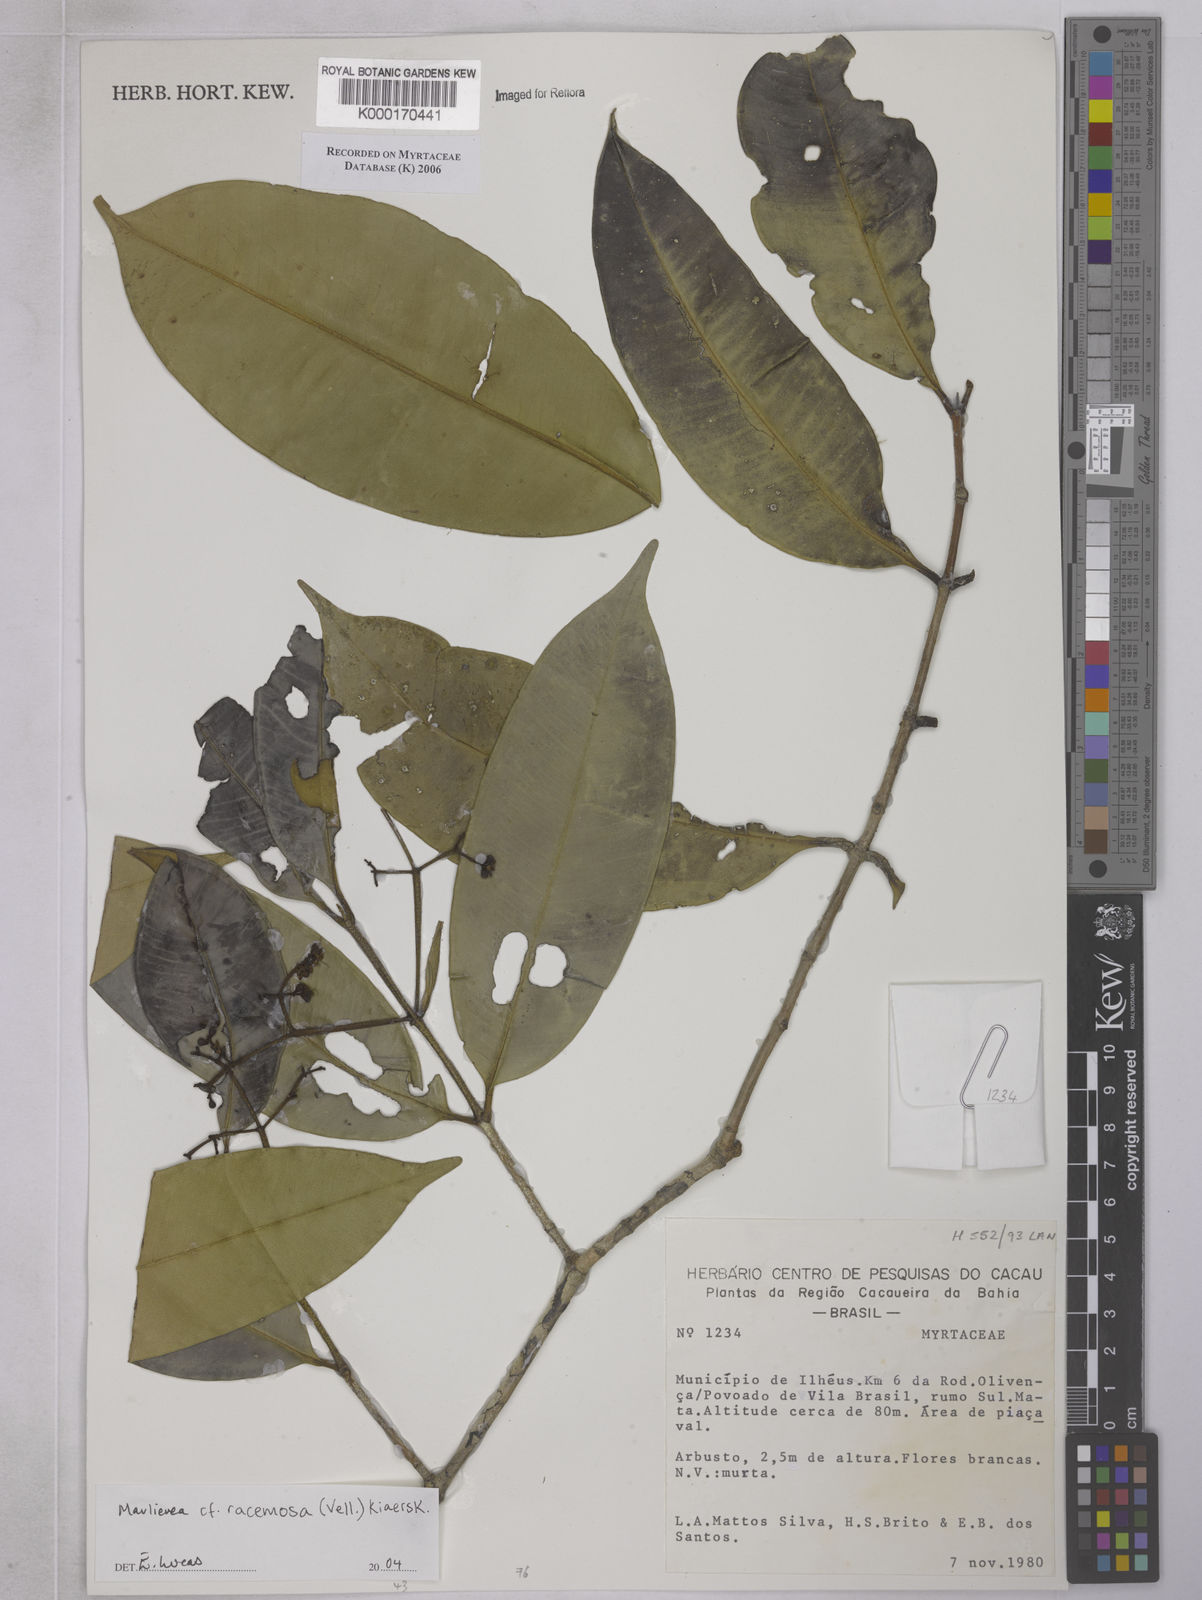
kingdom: Plantae
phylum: Tracheophyta
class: Magnoliopsida
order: Myrtales
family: Myrtaceae
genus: Myrcia
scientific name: Myrcia vellozoi
